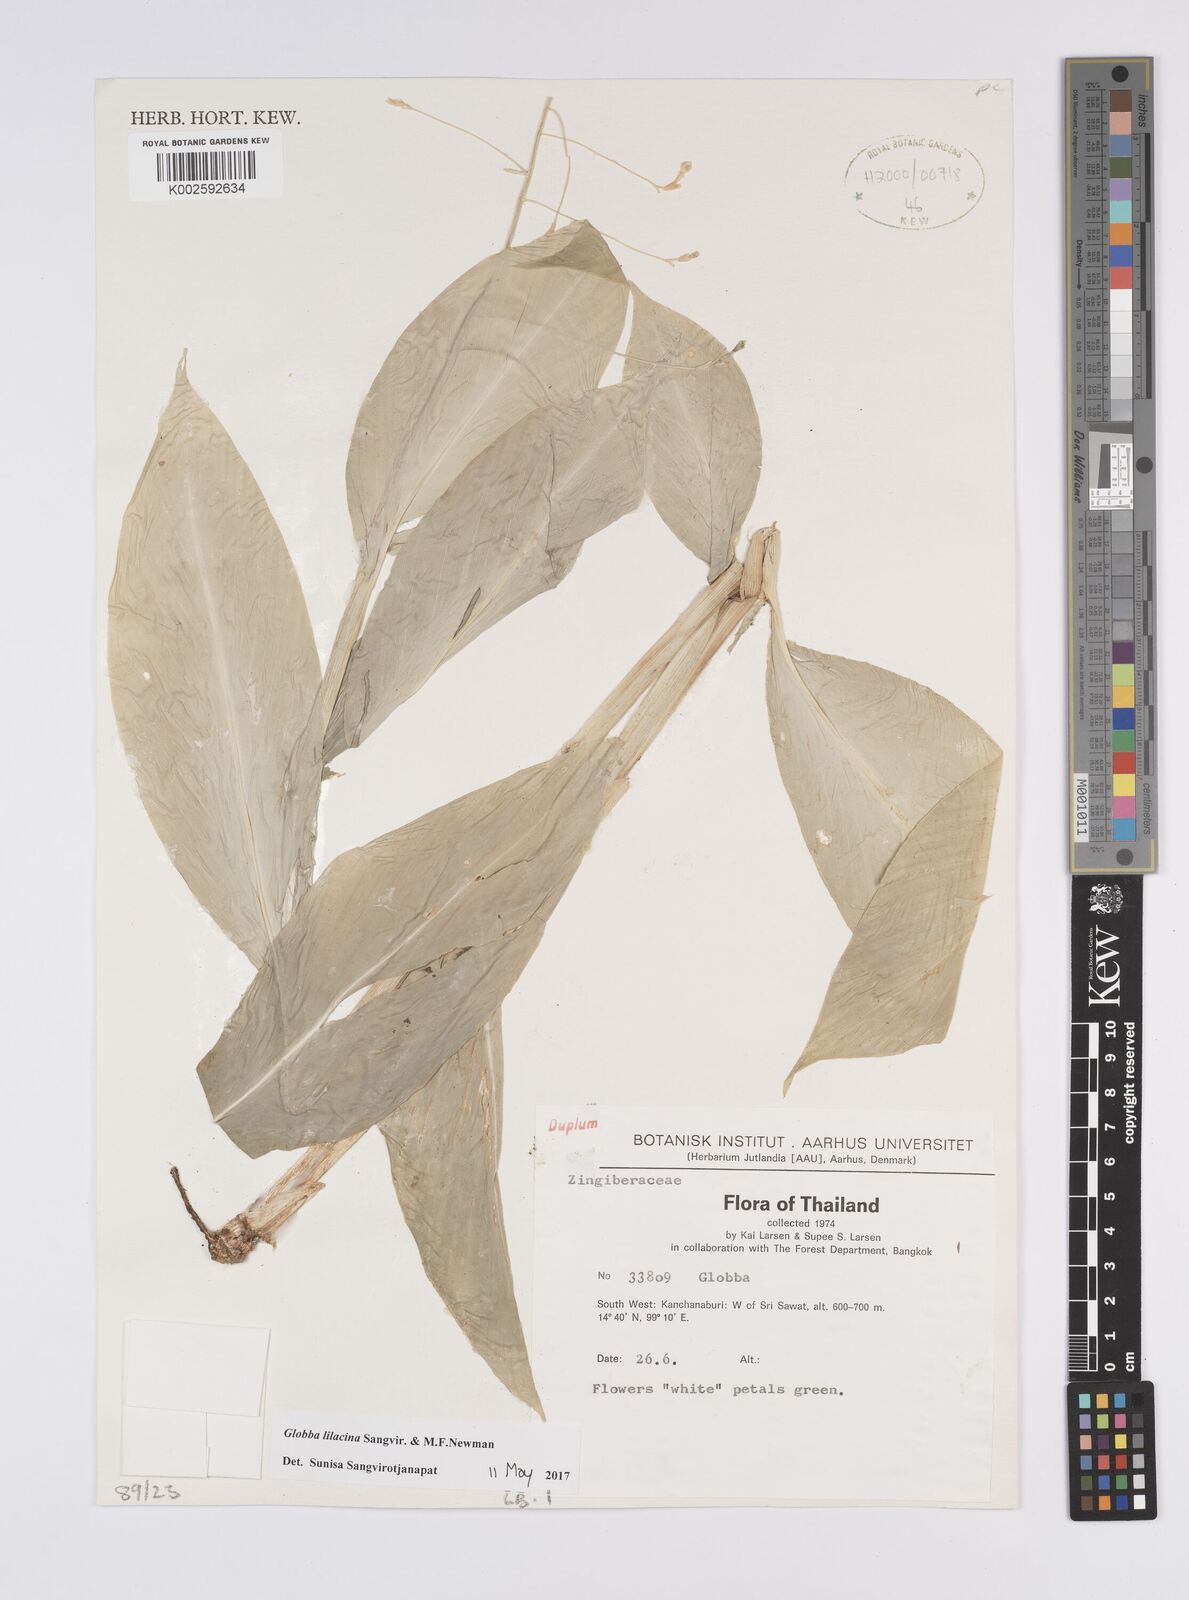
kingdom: Plantae
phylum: Tracheophyta
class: Liliopsida
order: Zingiberales
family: Zingiberaceae
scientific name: Zingiberaceae
